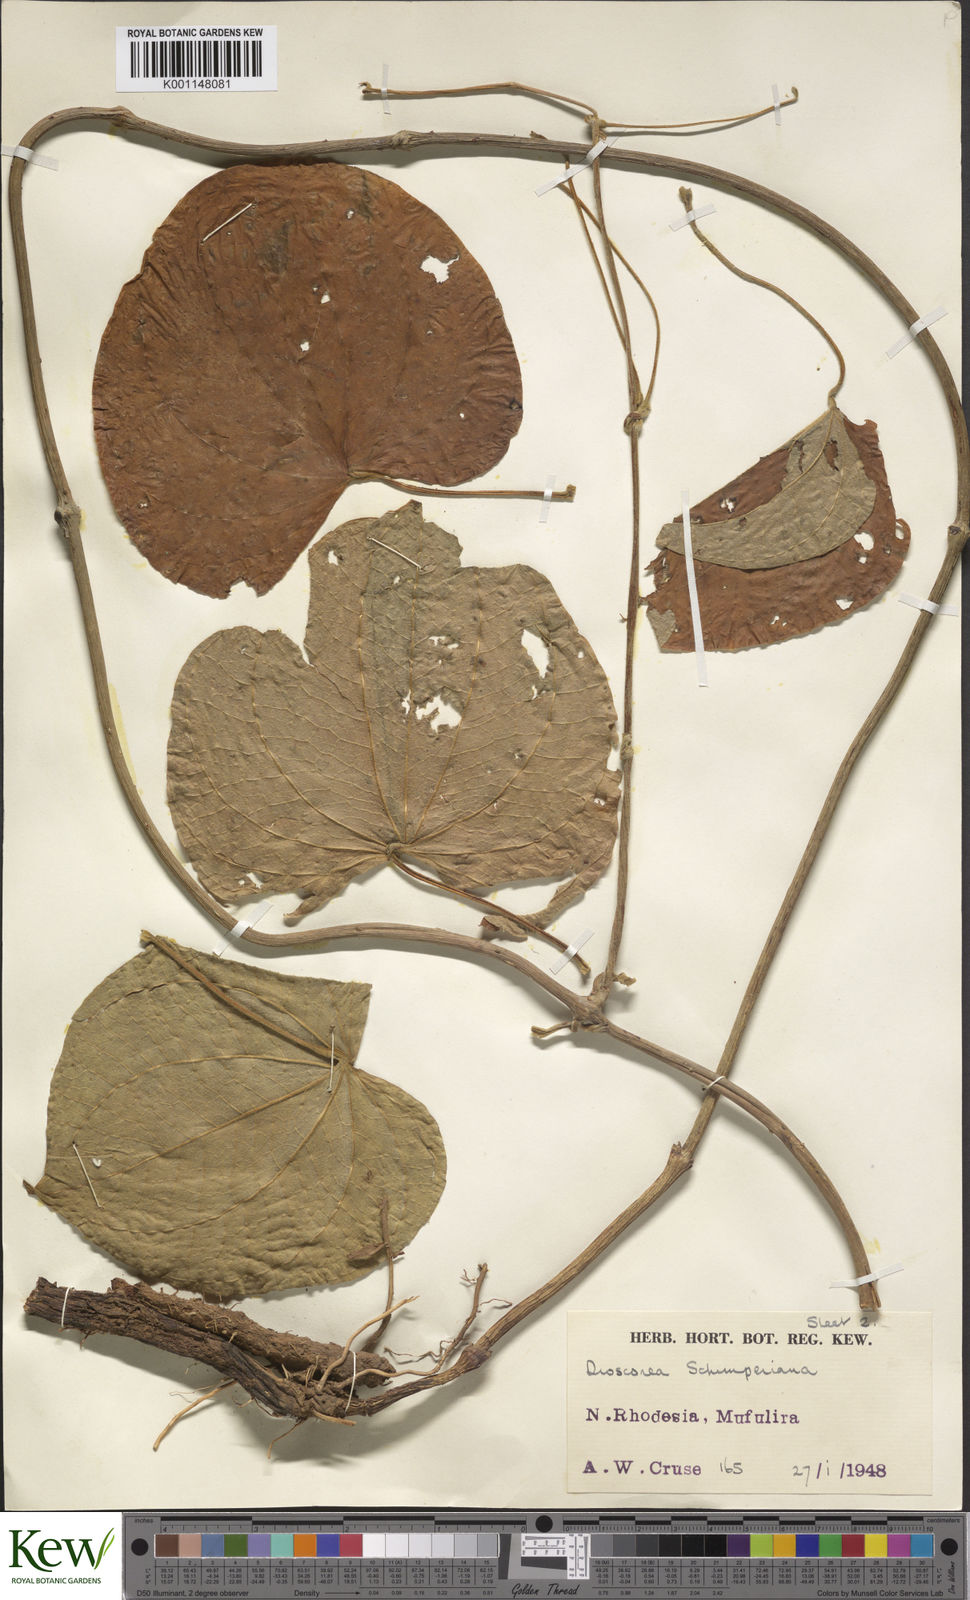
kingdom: Plantae
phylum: Tracheophyta
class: Liliopsida
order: Dioscoreales
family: Dioscoreaceae
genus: Dioscorea
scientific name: Dioscorea schimperiana
